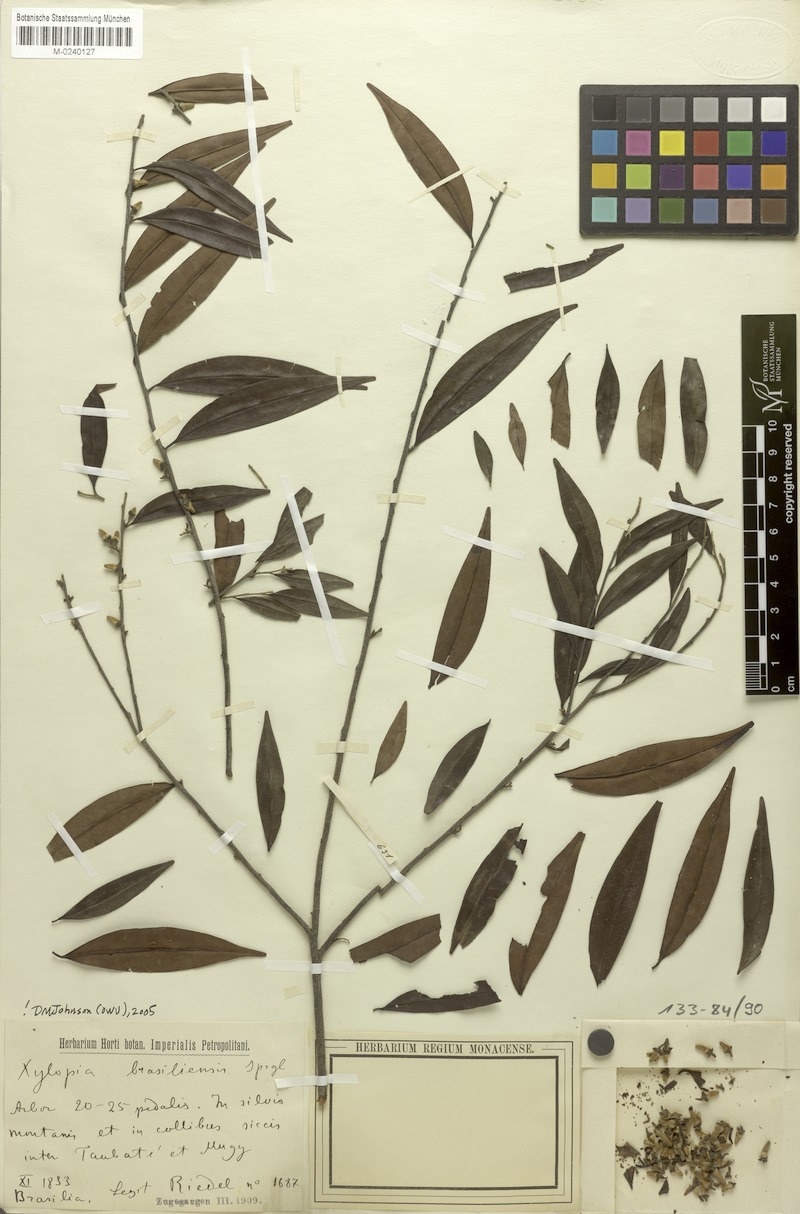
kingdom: Plantae
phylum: Tracheophyta
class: Magnoliopsida
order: Magnoliales
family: Annonaceae
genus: Xylopia
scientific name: Xylopia brasiliensis
